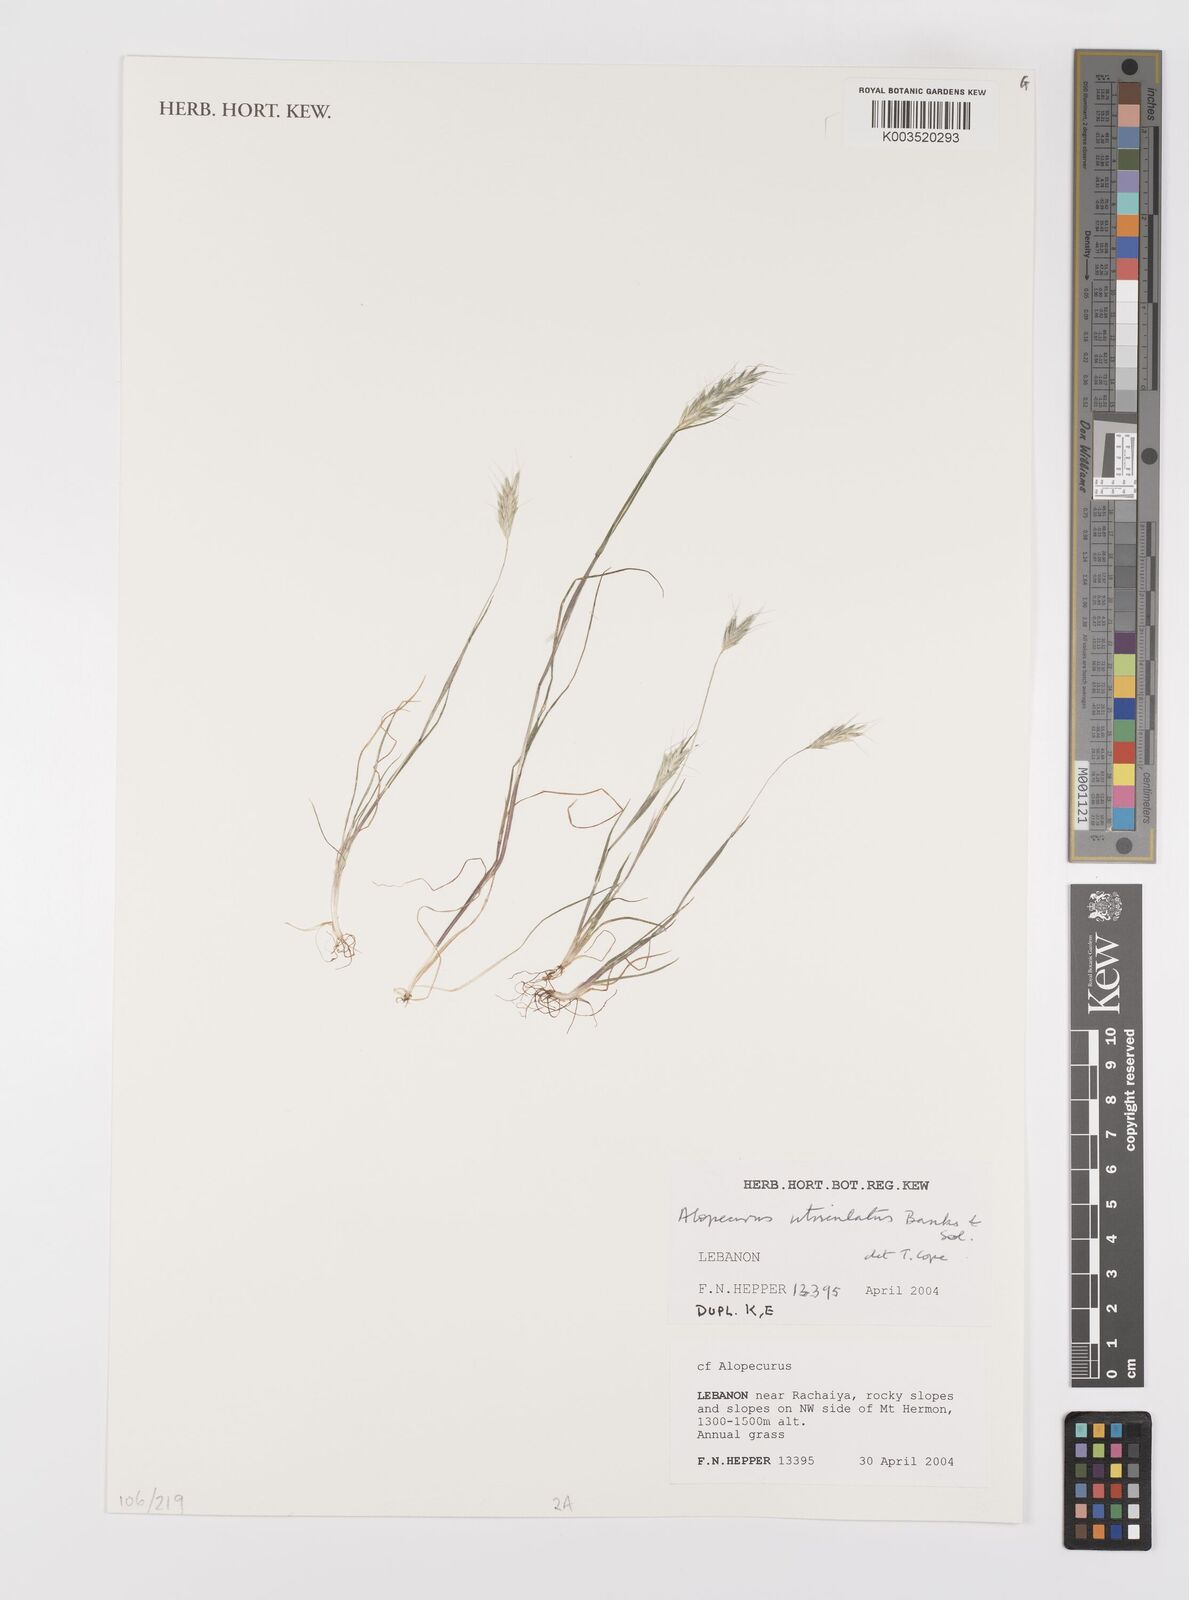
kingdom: Plantae
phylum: Tracheophyta
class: Liliopsida
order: Poales
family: Poaceae
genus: Alopecurus
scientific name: Alopecurus utriculatus
